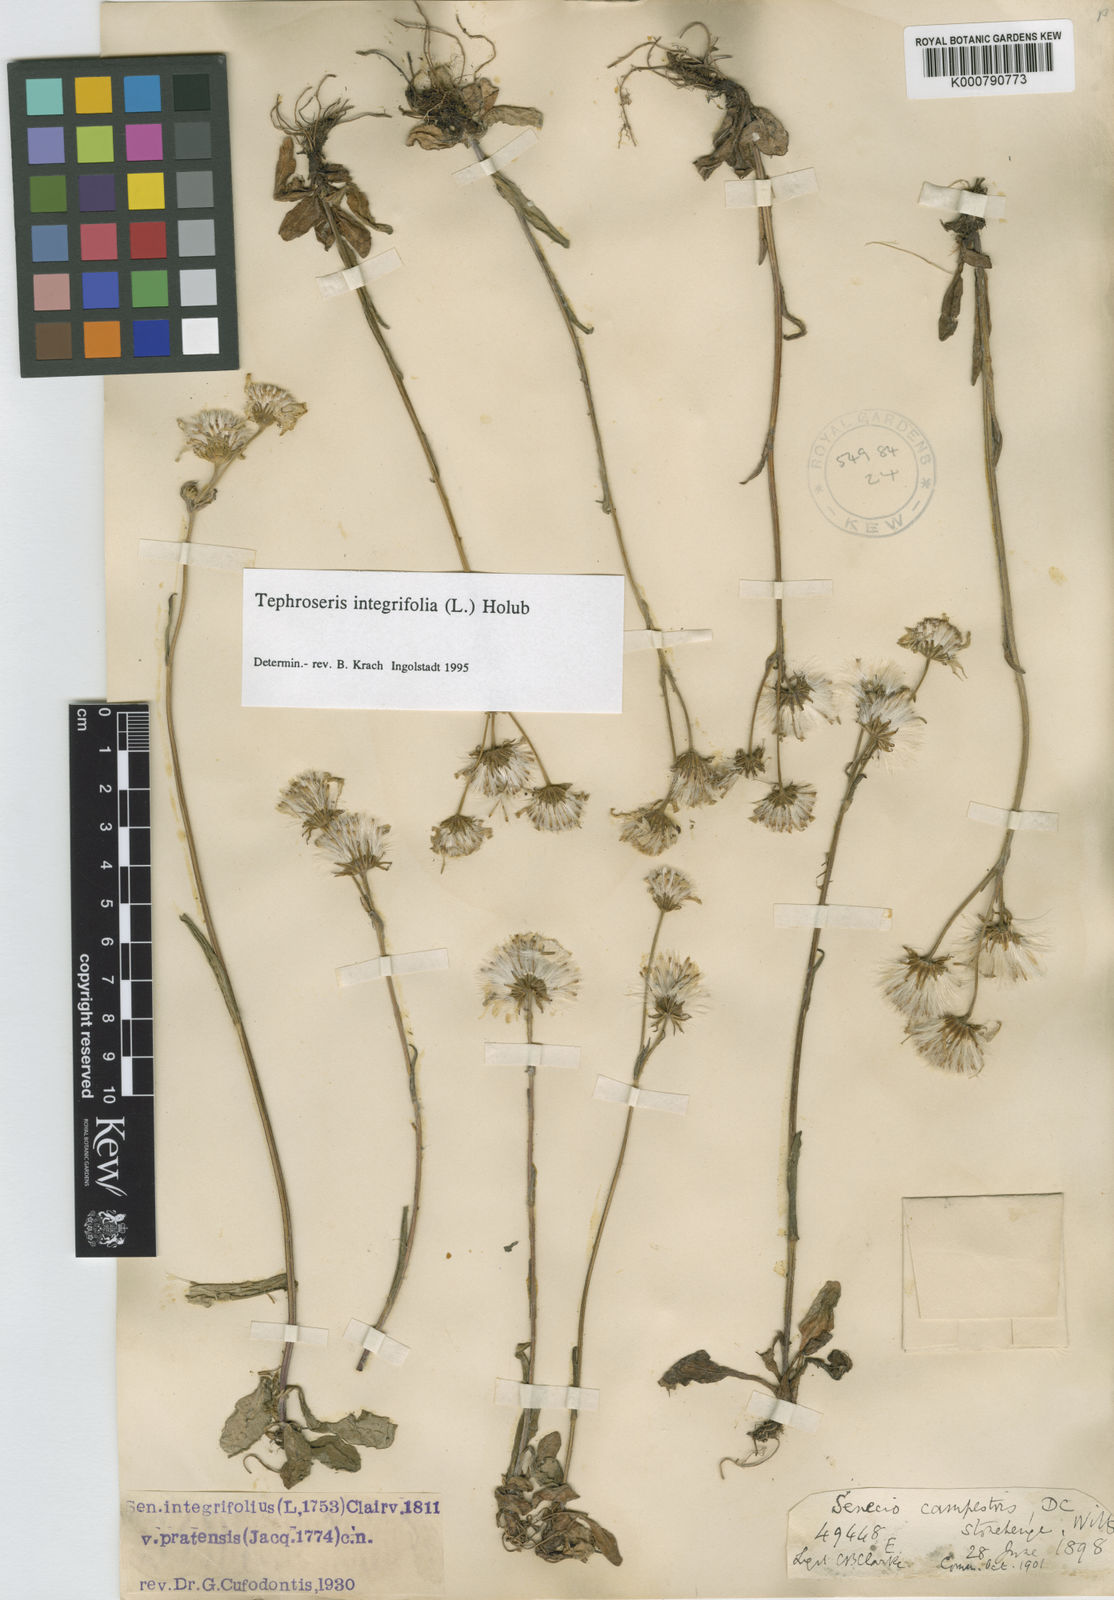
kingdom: Plantae
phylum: Tracheophyta
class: Magnoliopsida
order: Asterales
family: Asteraceae
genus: Tephroseris
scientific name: Tephroseris integrifolia
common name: Field fleawort
